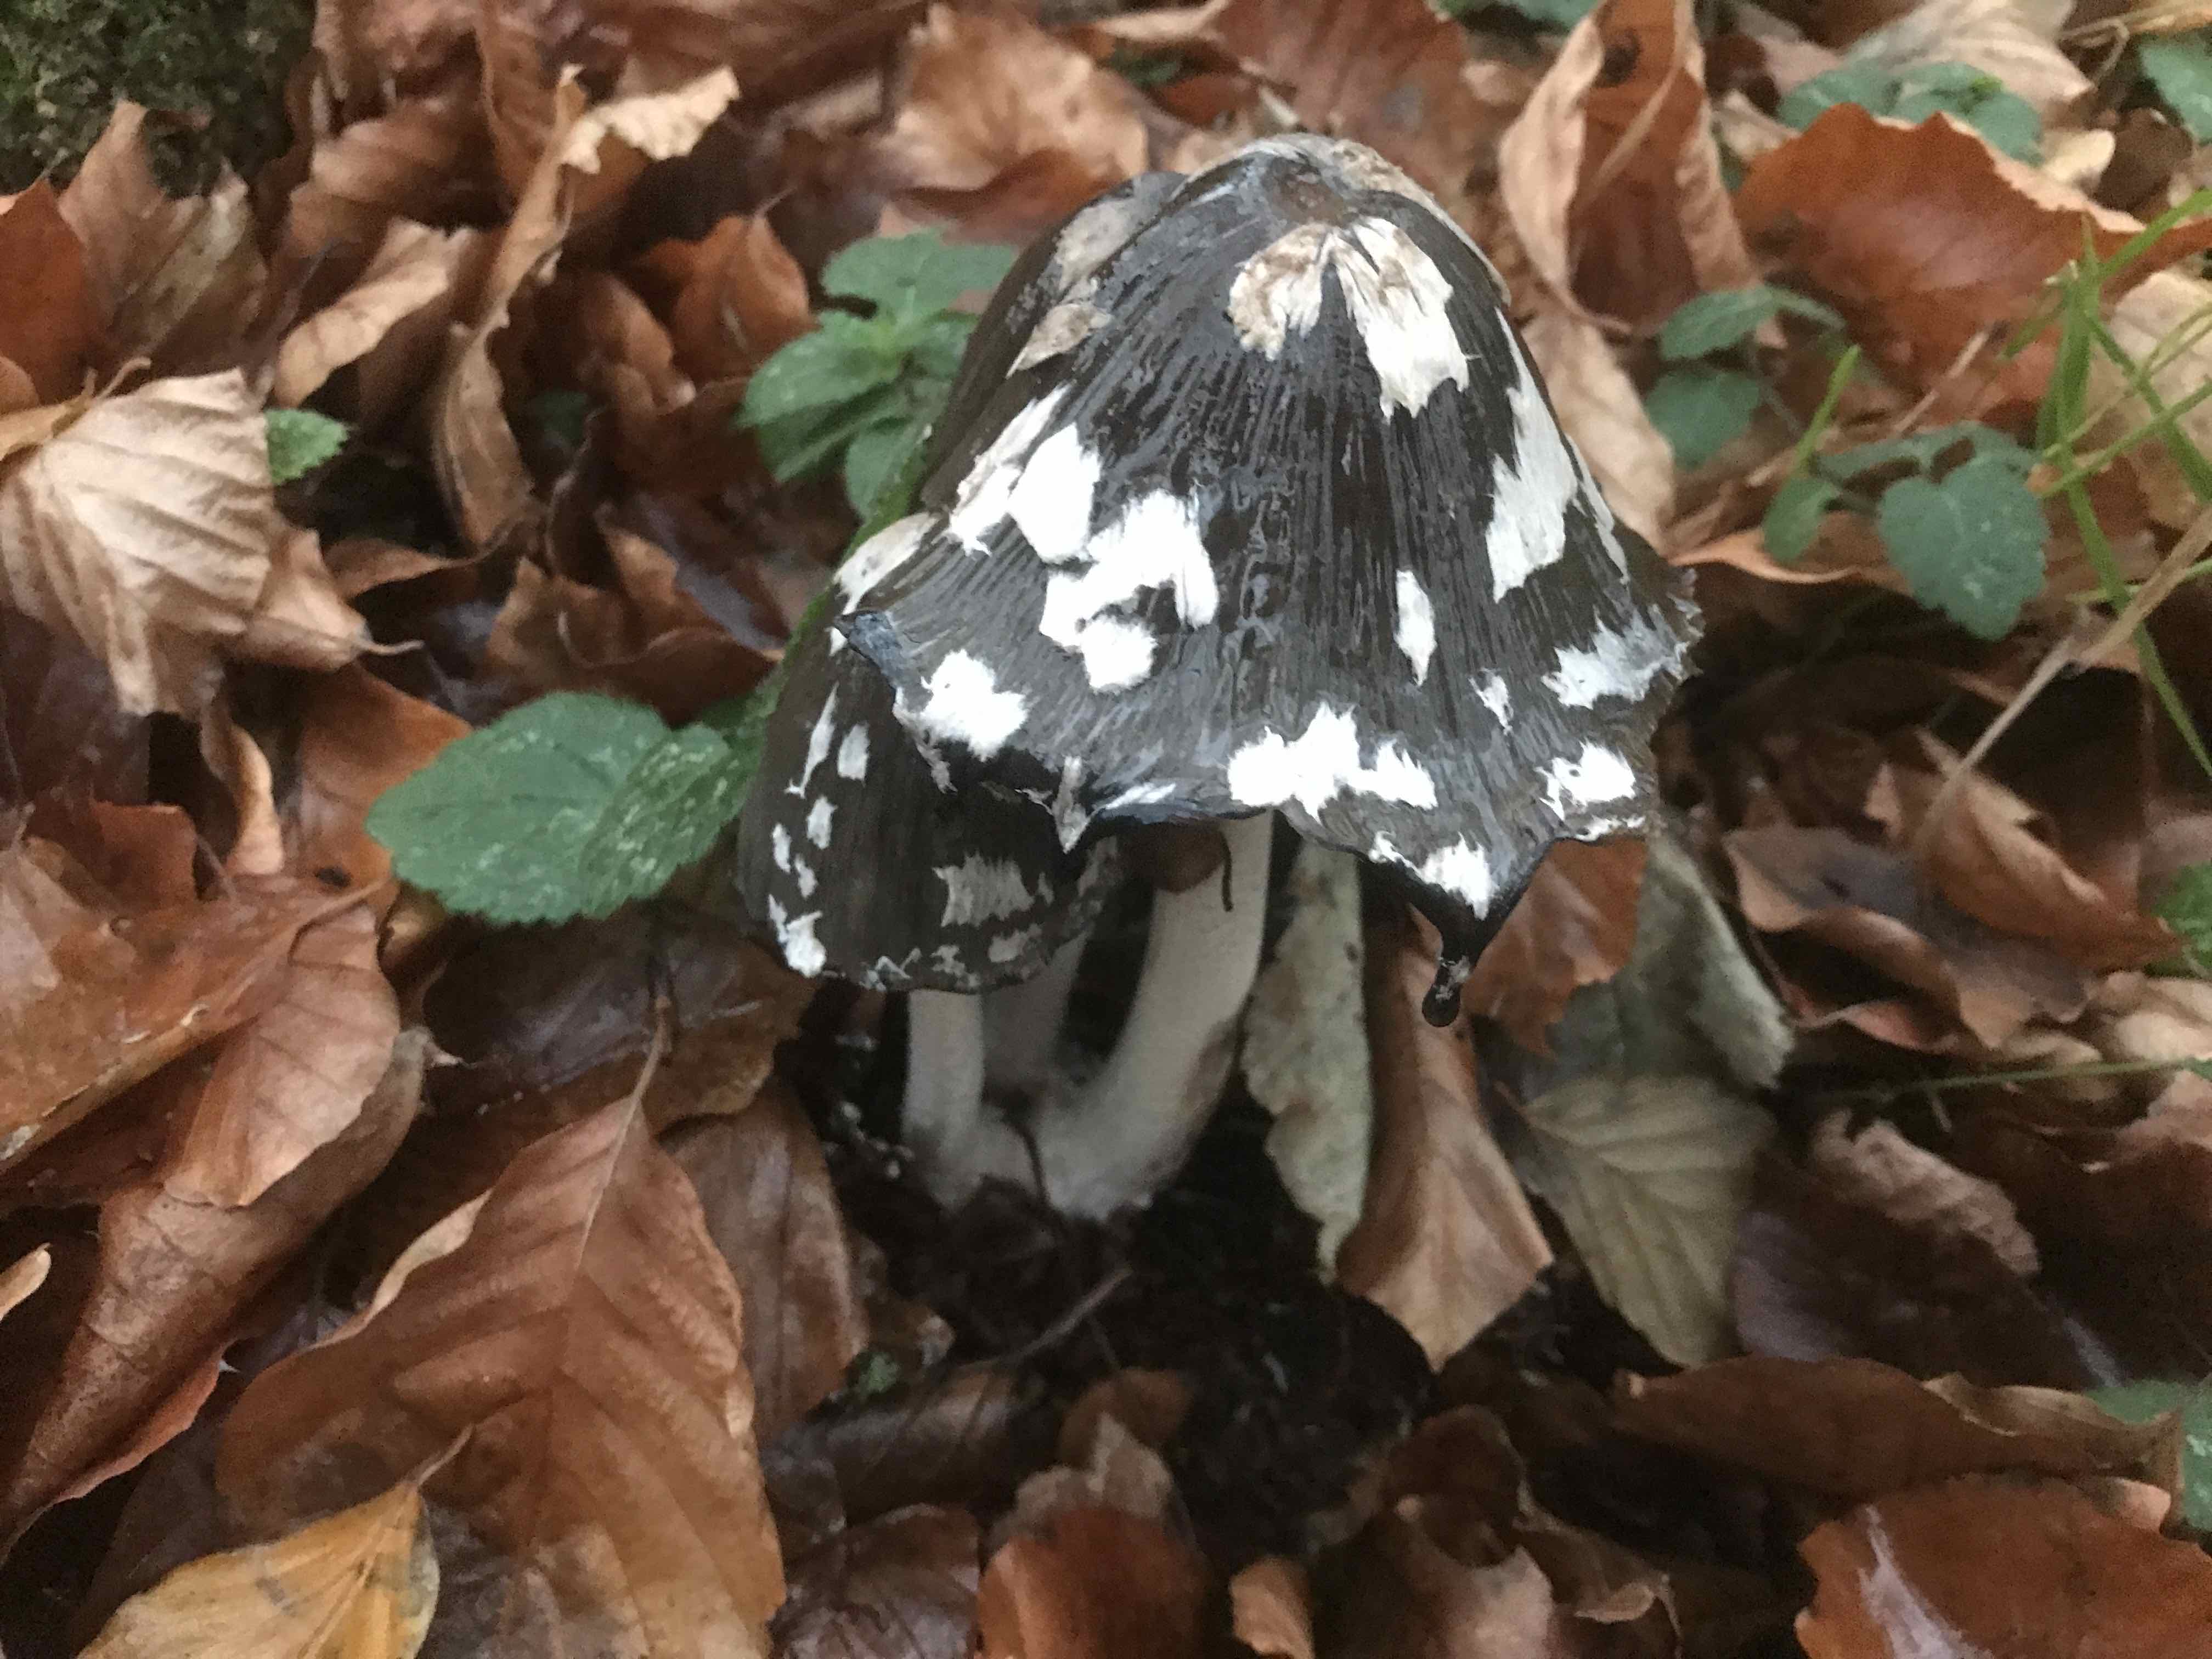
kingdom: Fungi
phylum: Basidiomycota
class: Agaricomycetes
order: Agaricales
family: Psathyrellaceae
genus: Coprinopsis
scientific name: Coprinopsis picacea
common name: skade-blækhat
